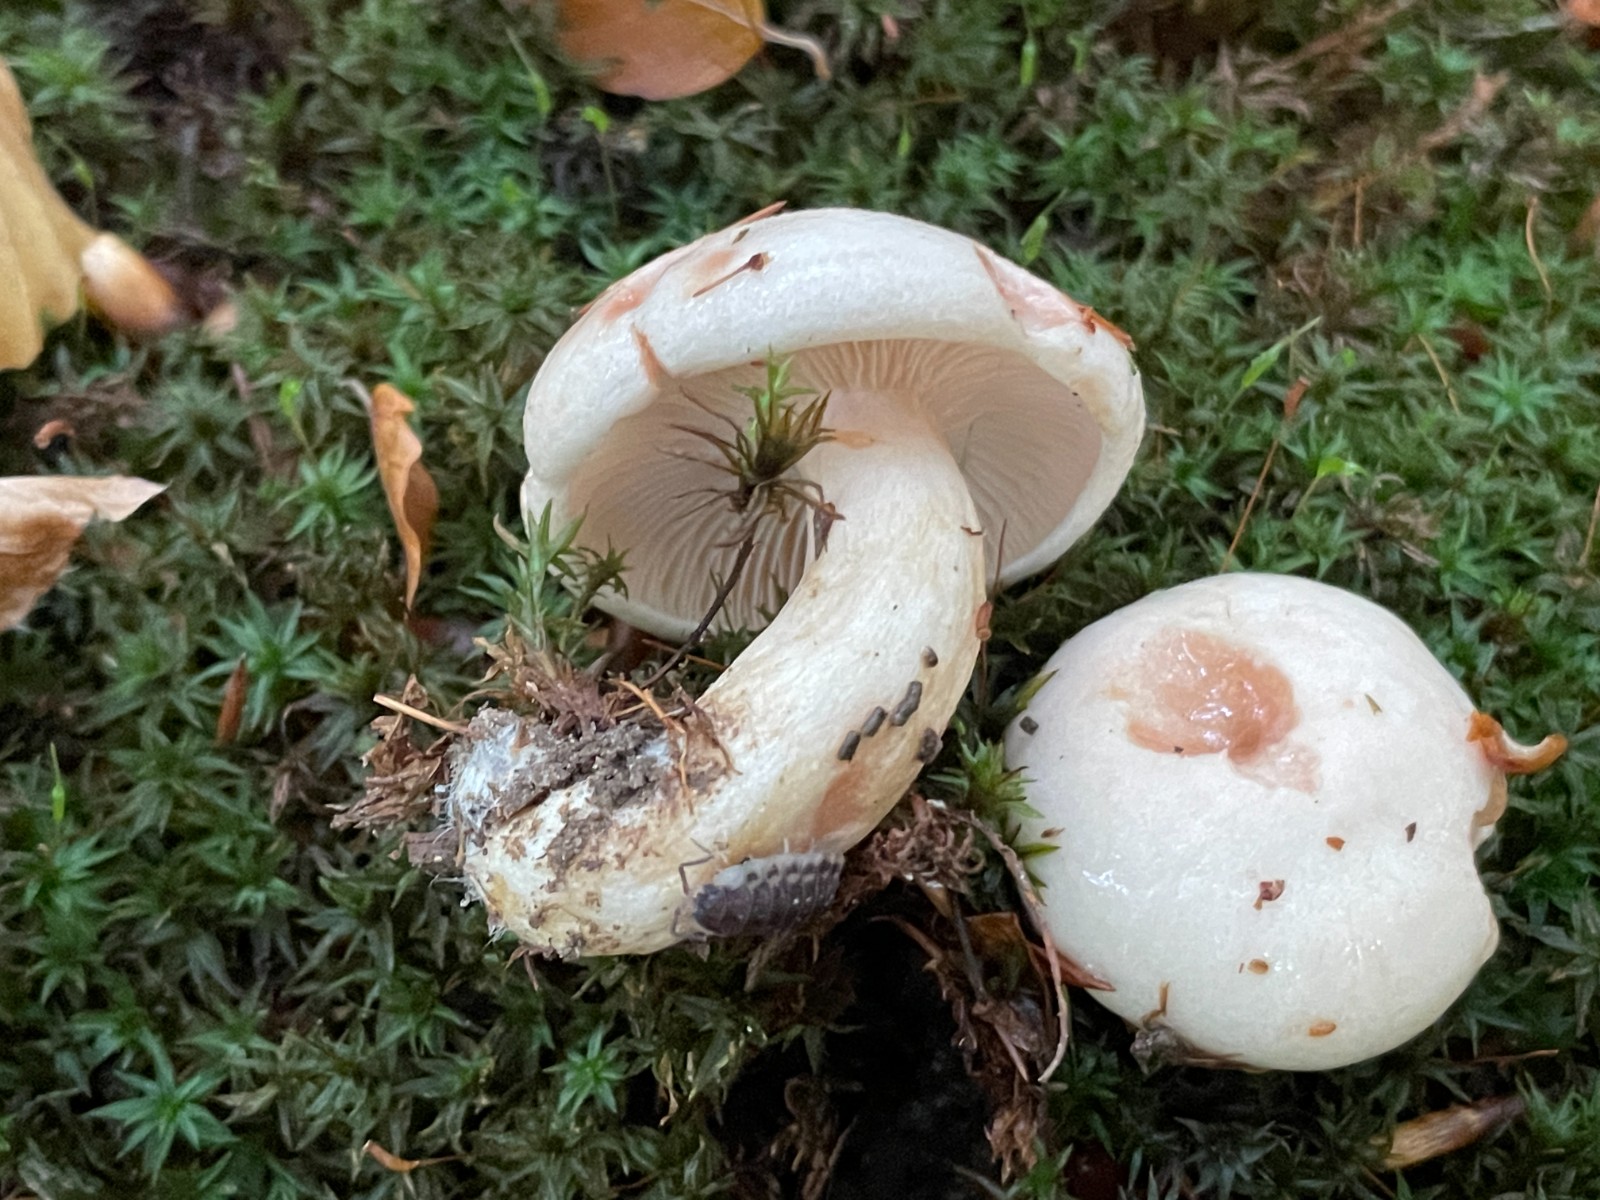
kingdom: Fungi
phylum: Basidiomycota
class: Agaricomycetes
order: Russulales
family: Russulaceae
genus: Lactarius
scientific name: Lactarius pallidus
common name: bleg mælkehat
